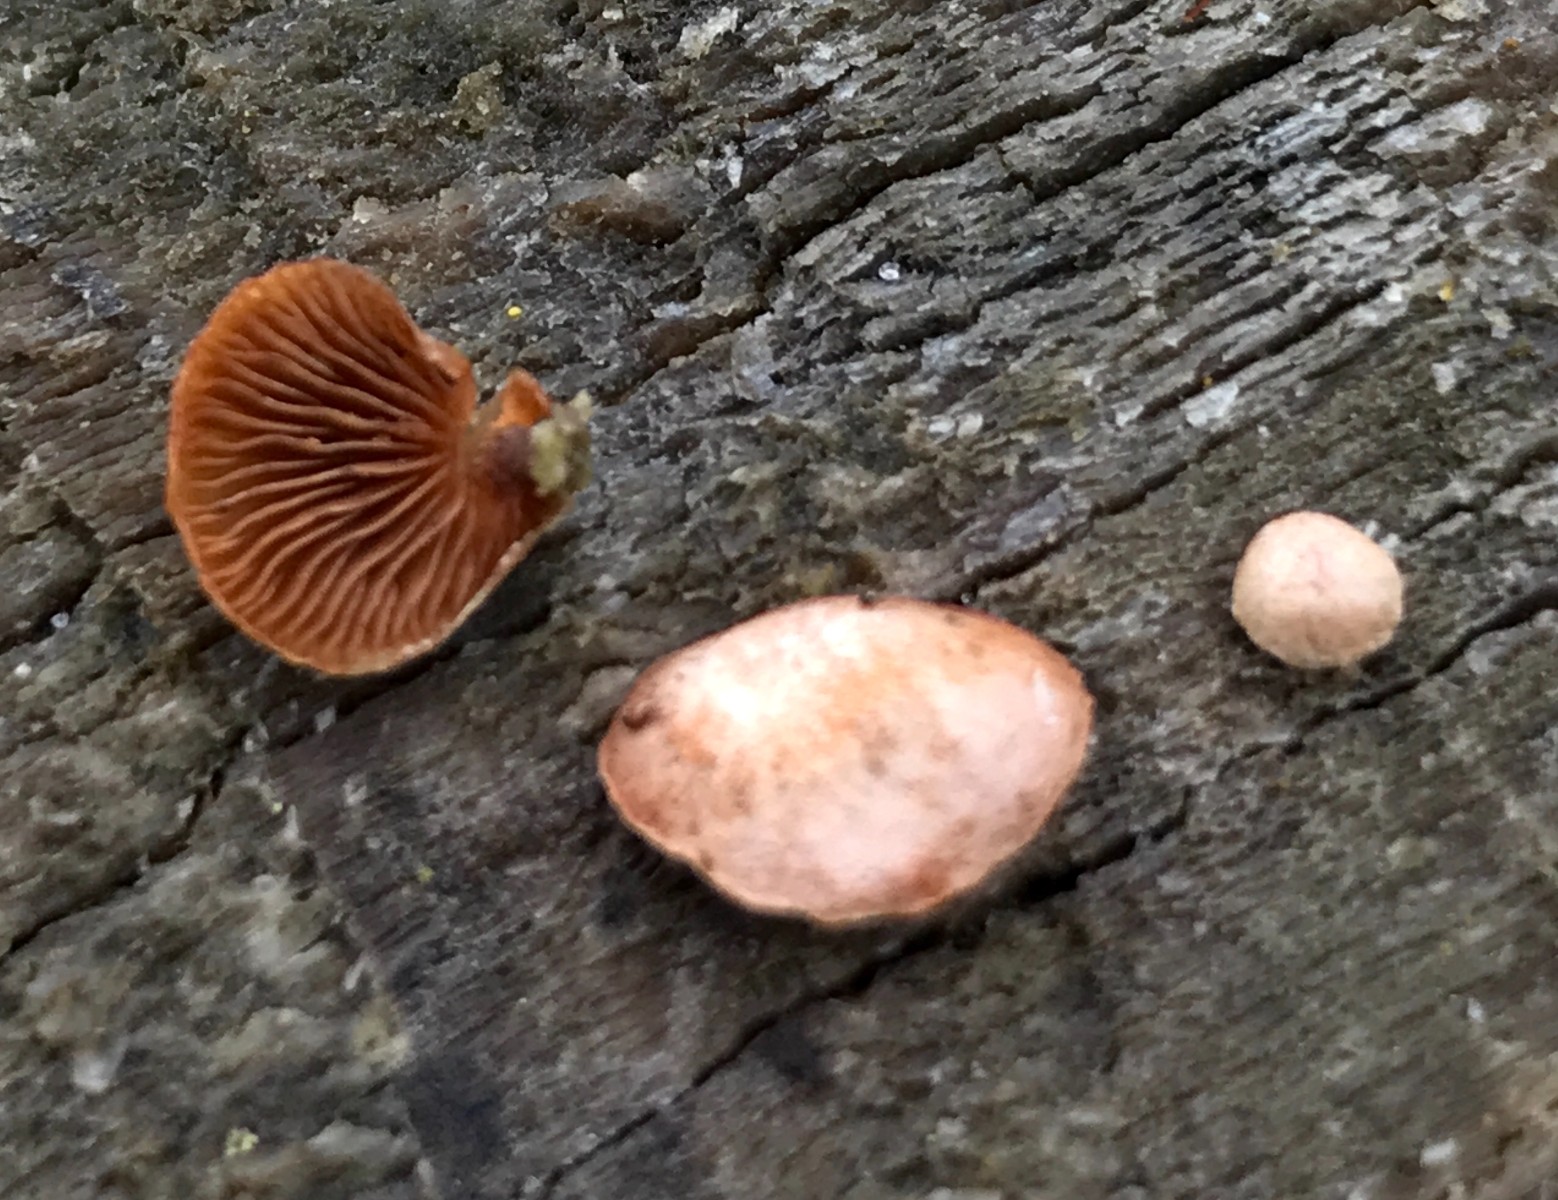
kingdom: Fungi
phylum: Basidiomycota
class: Agaricomycetes
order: Agaricales
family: Strophariaceae
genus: Deconica
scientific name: Deconica horizontalis
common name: ved-stråhat
